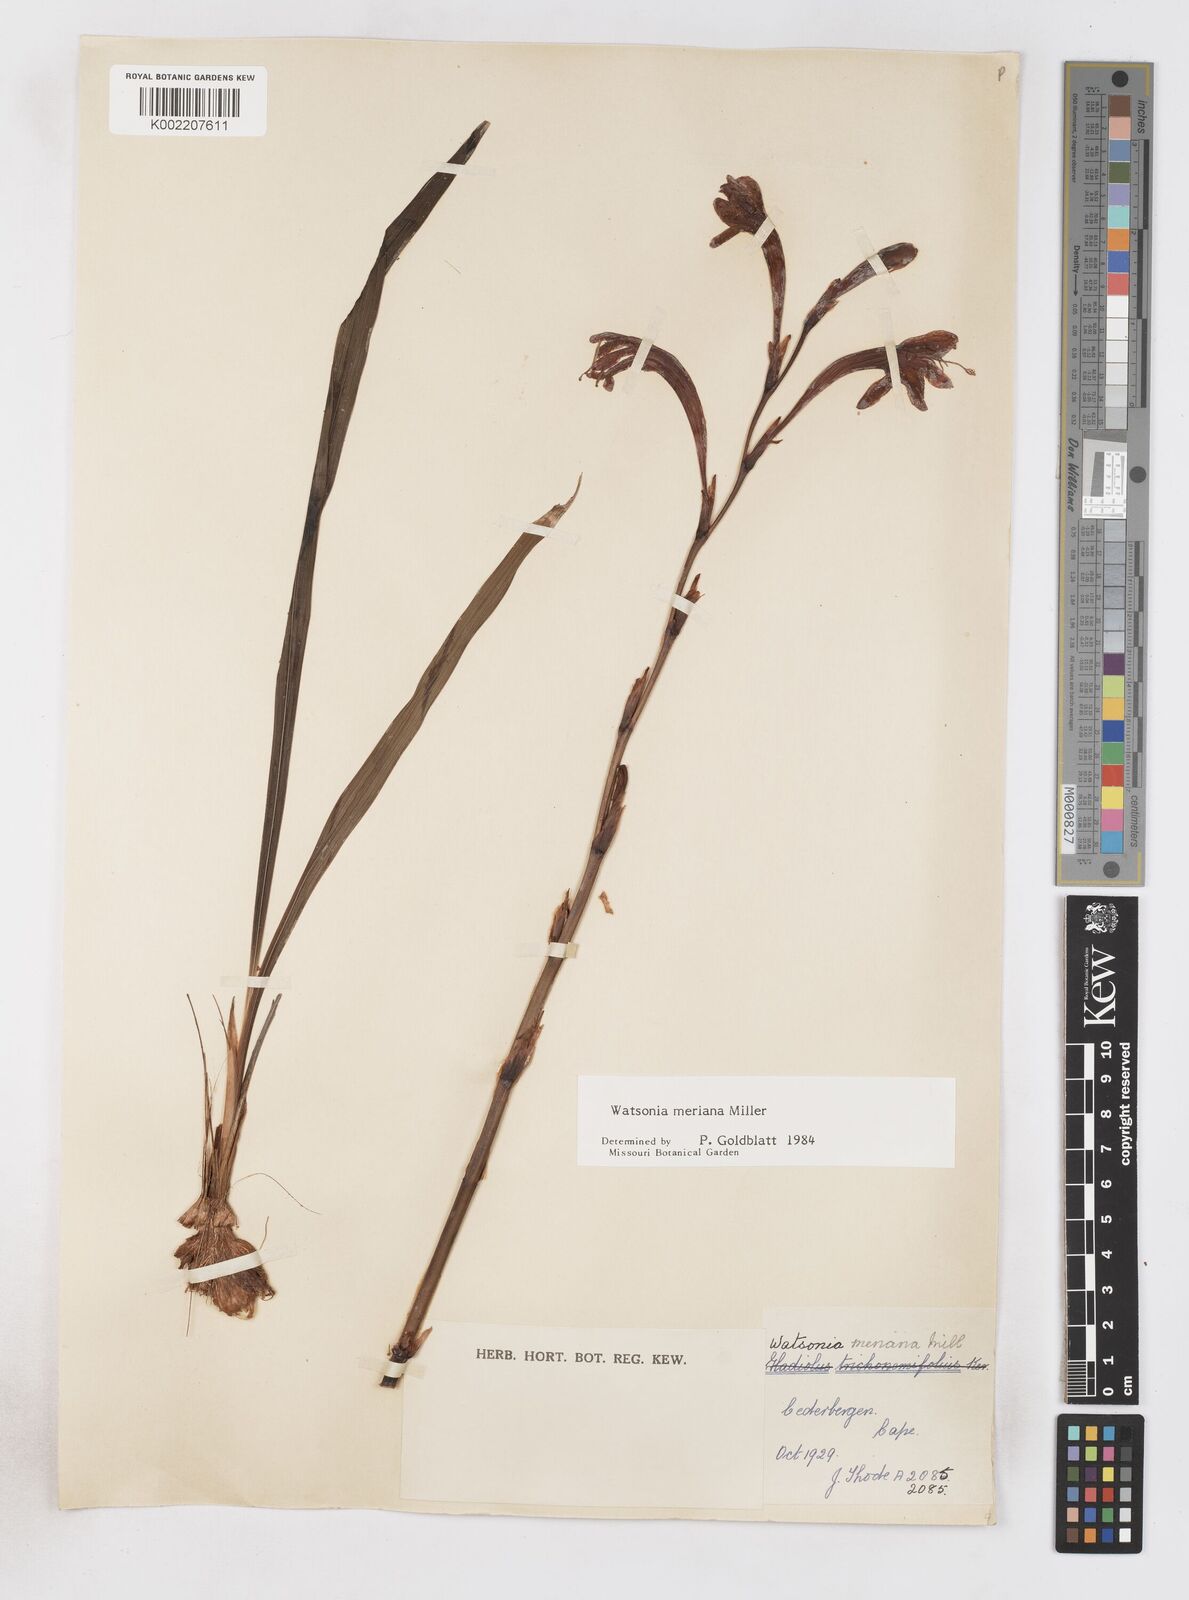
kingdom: Plantae
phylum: Tracheophyta
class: Liliopsida
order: Asparagales
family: Iridaceae
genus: Watsonia
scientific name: Watsonia meriana
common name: Bulbil bugle-lily
